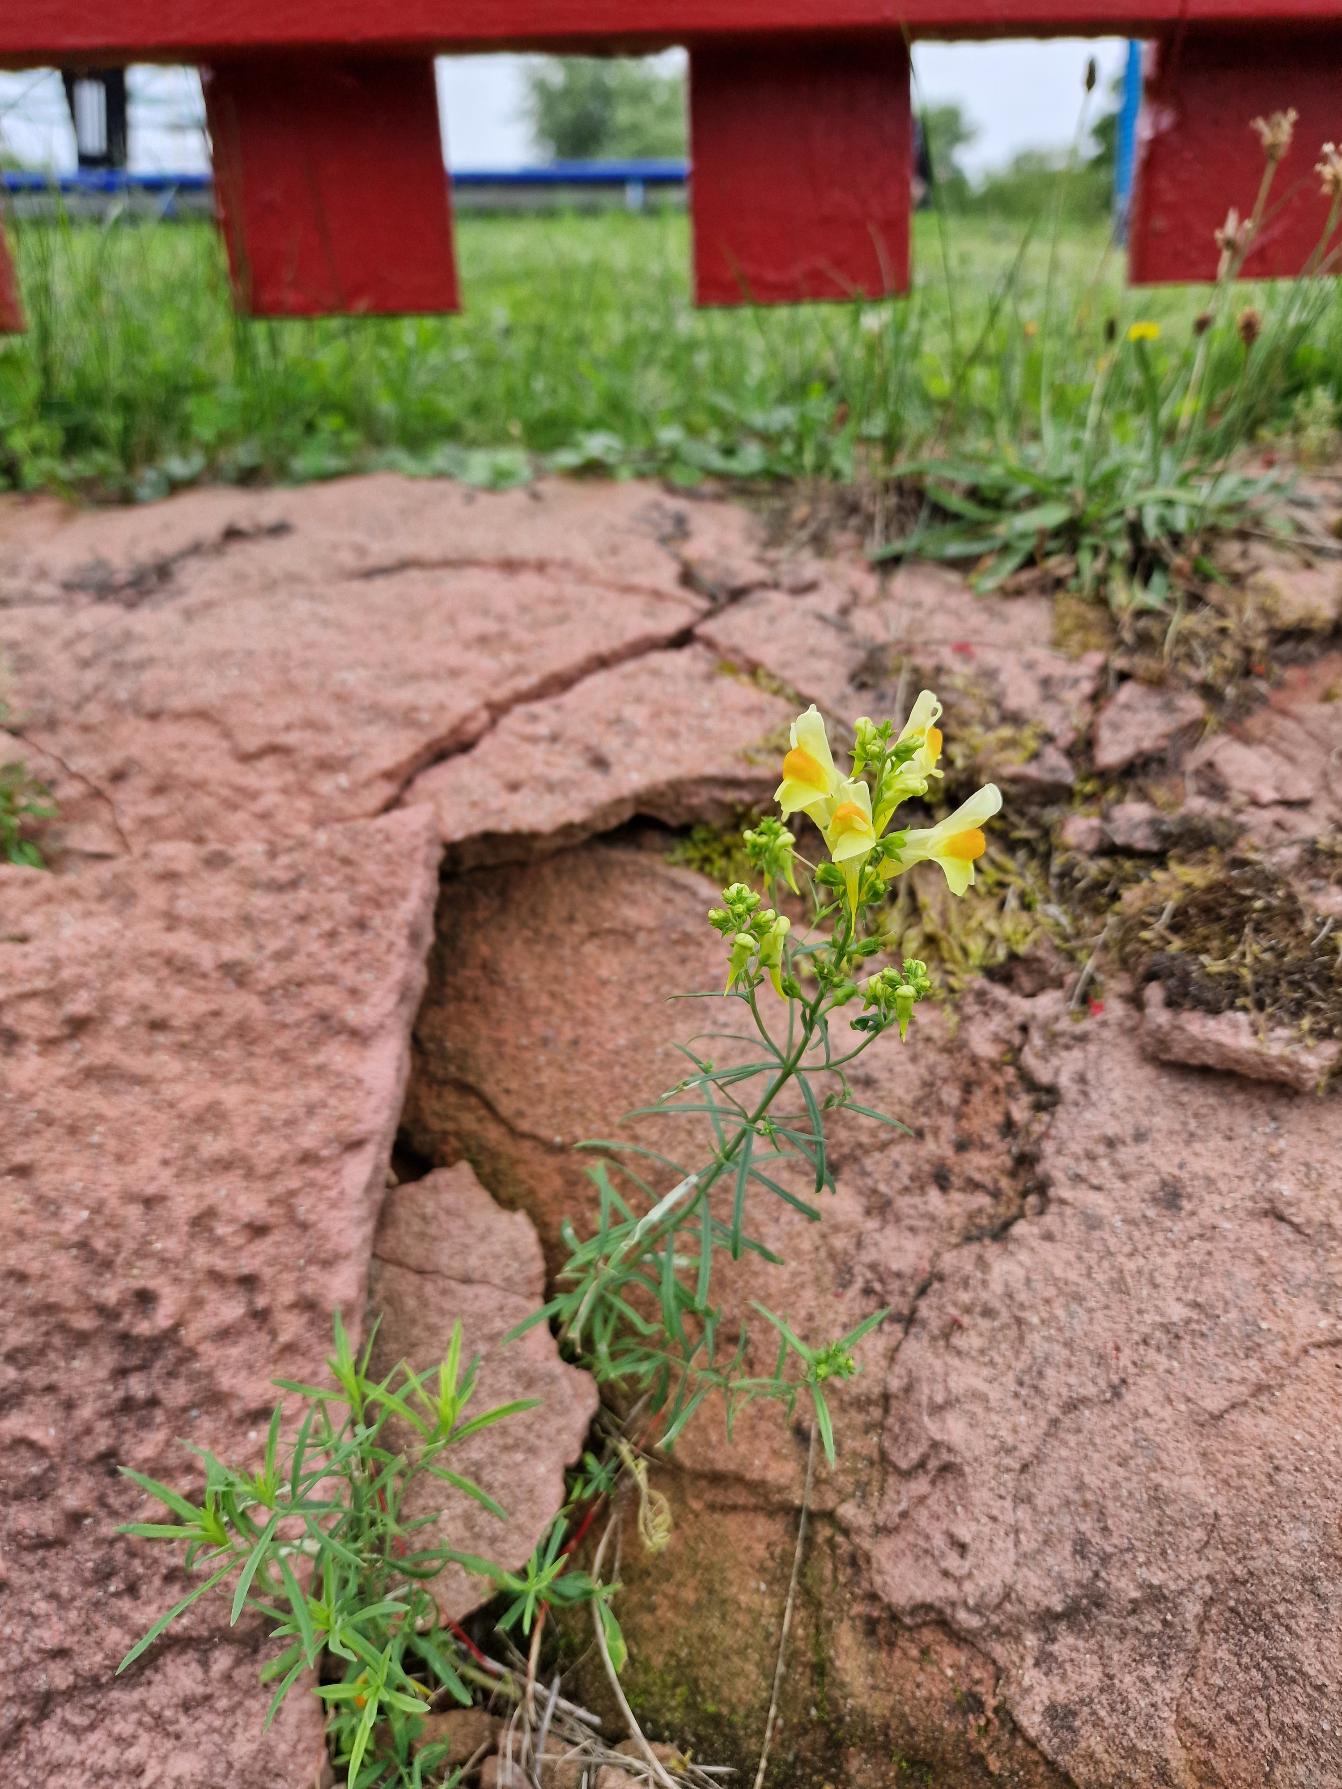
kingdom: Plantae
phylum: Tracheophyta
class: Magnoliopsida
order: Lamiales
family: Plantaginaceae
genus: Linaria
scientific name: Linaria vulgaris
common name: Almindelig torskemund
